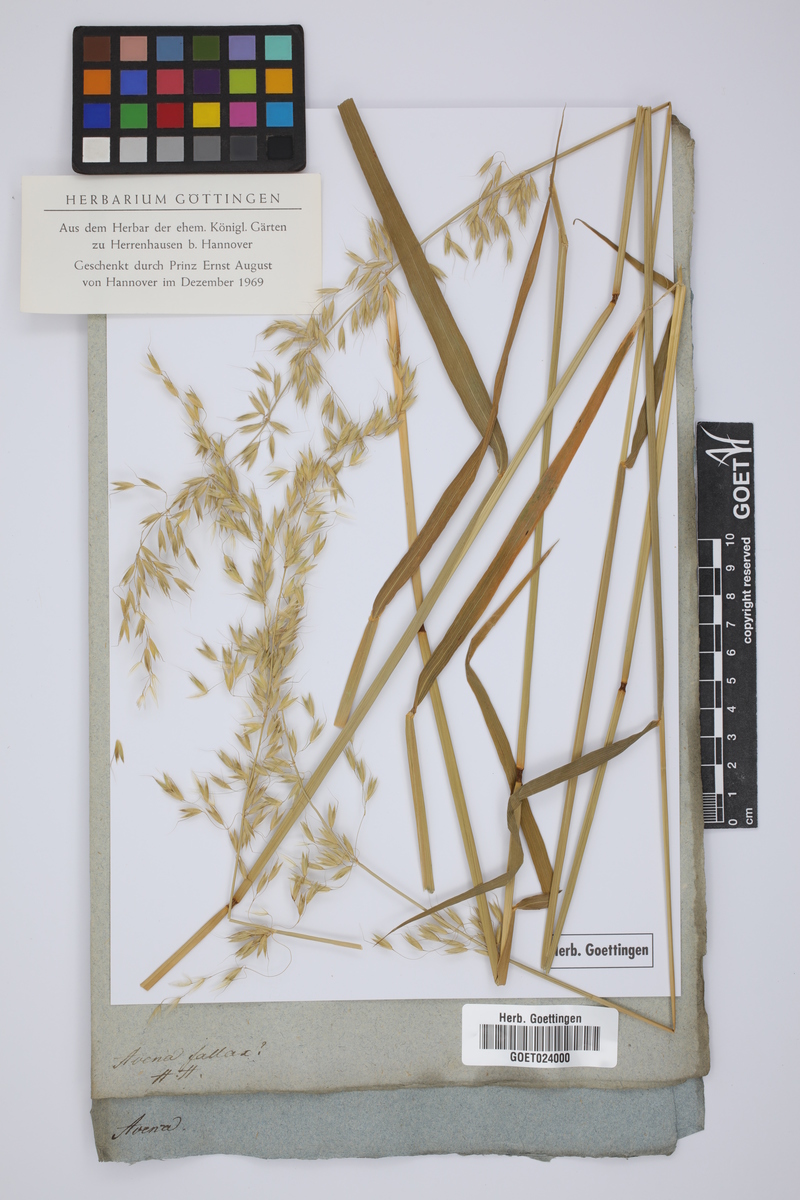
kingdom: Plantae
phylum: Tracheophyta
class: Liliopsida
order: Poales
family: Poaceae
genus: Helictotrichon
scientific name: Helictotrichon
